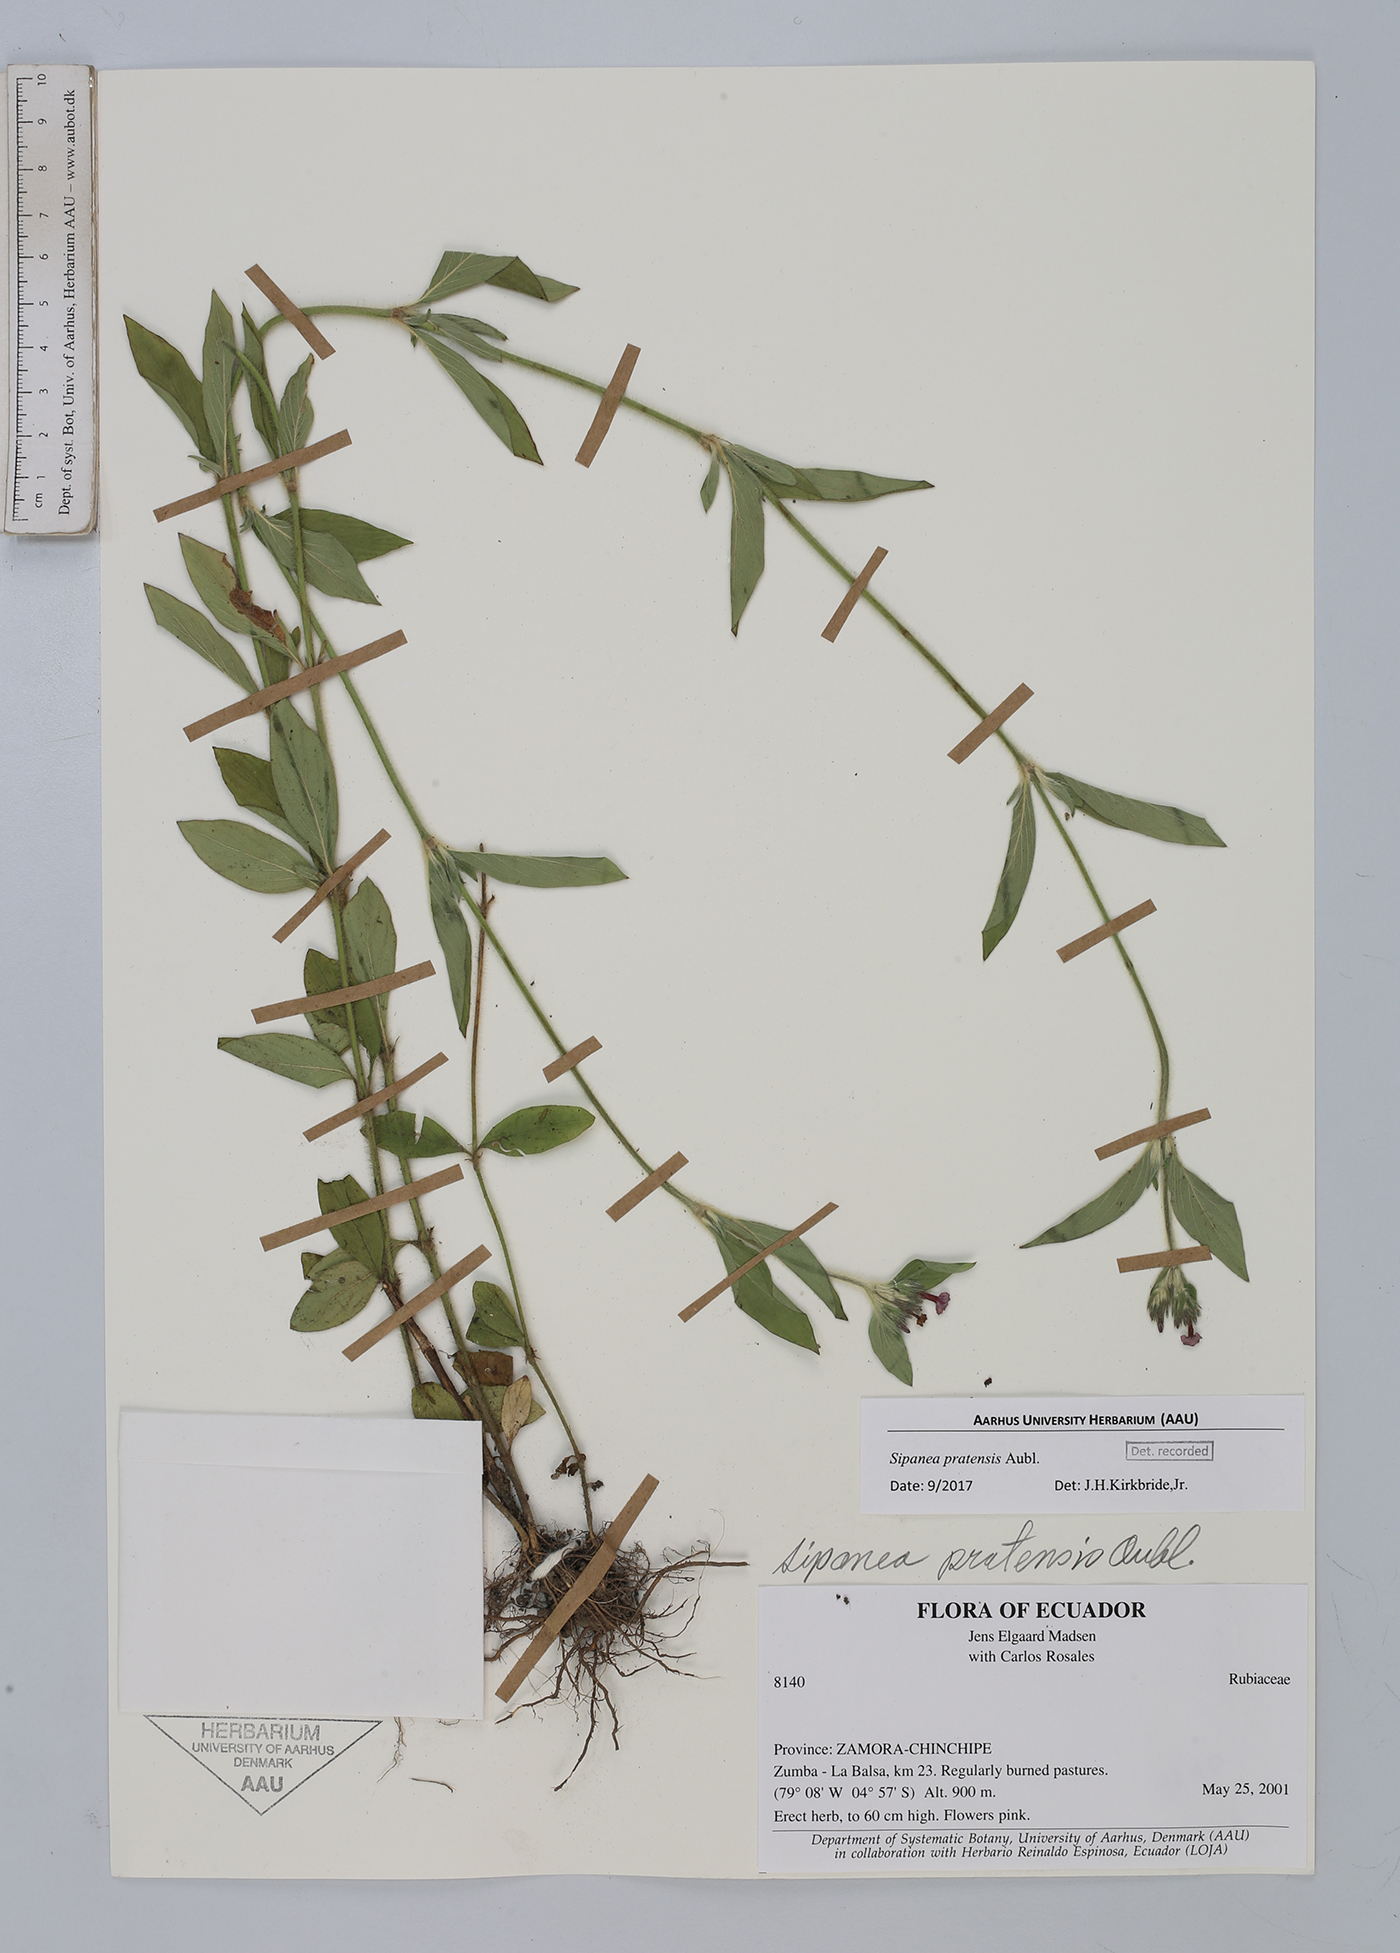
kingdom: Plantae
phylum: Tracheophyta
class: Magnoliopsida
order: Gentianales
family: Rubiaceae
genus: Sipanea
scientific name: Sipanea pratensis
